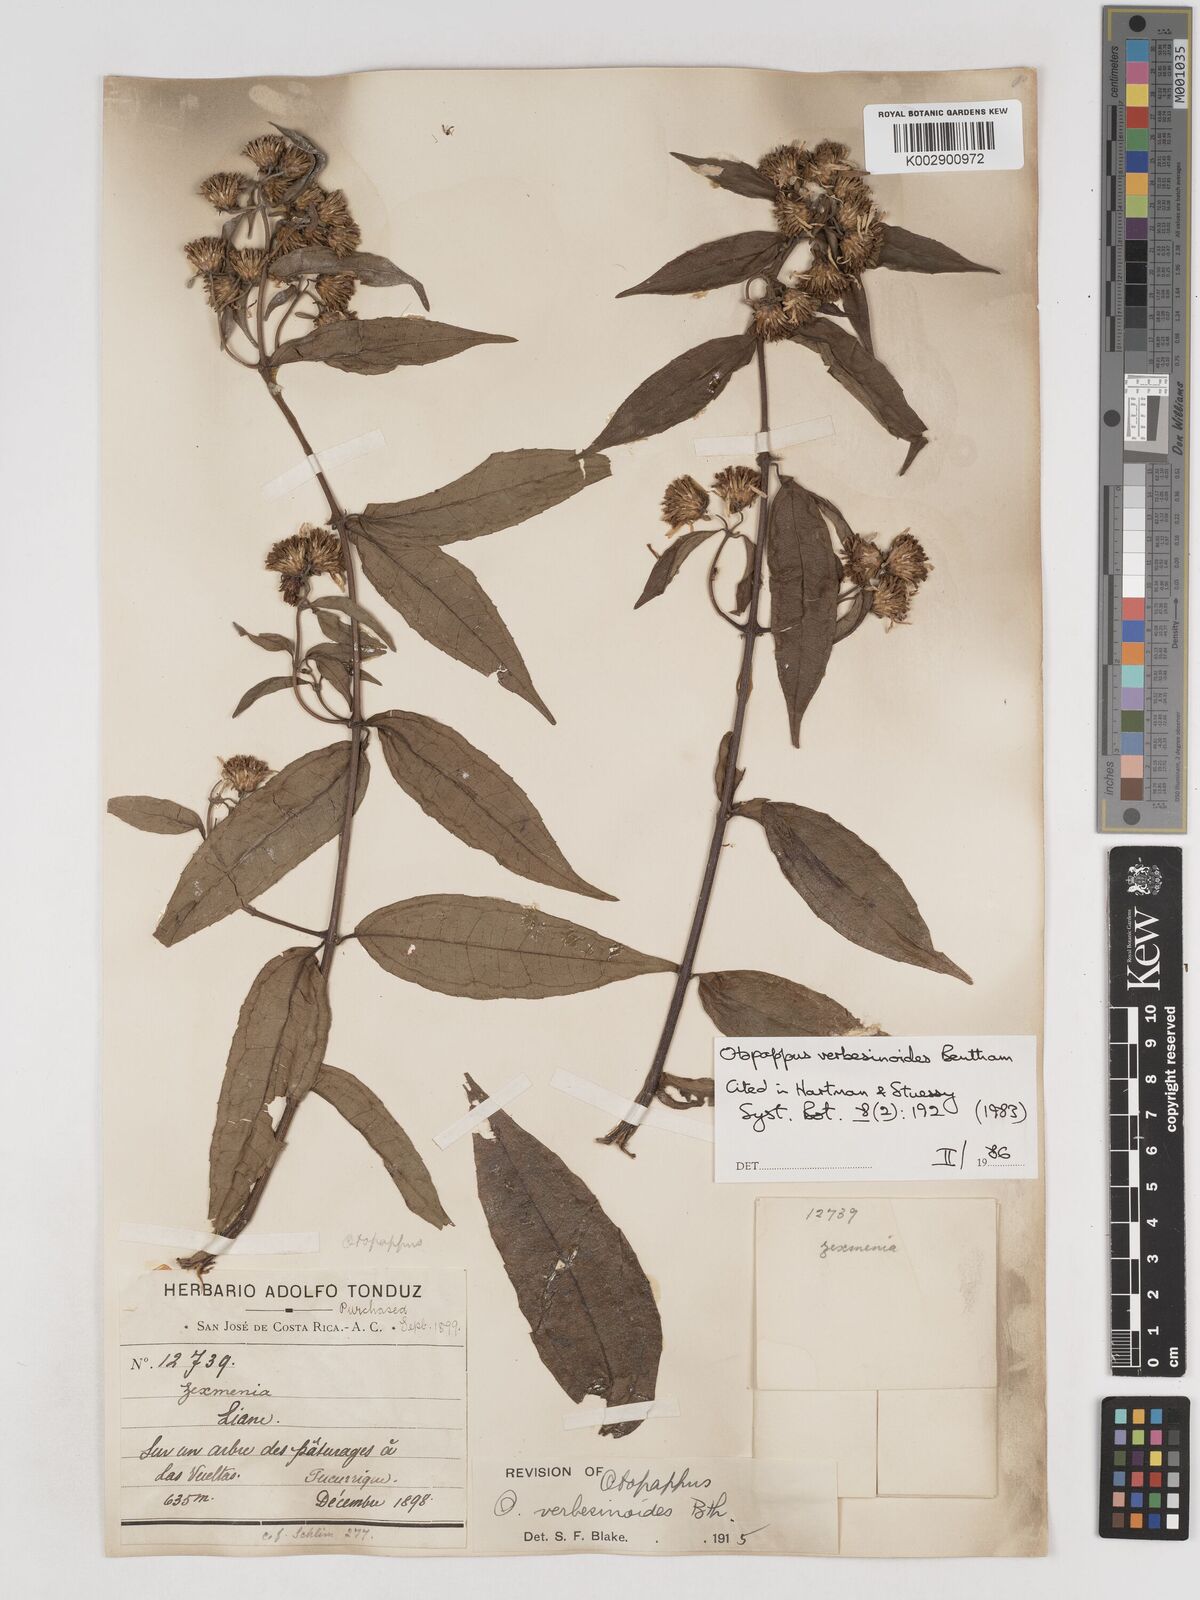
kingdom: Plantae
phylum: Tracheophyta
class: Magnoliopsida
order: Asterales
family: Asteraceae
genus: Otopappus
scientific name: Otopappus verbesinoides
